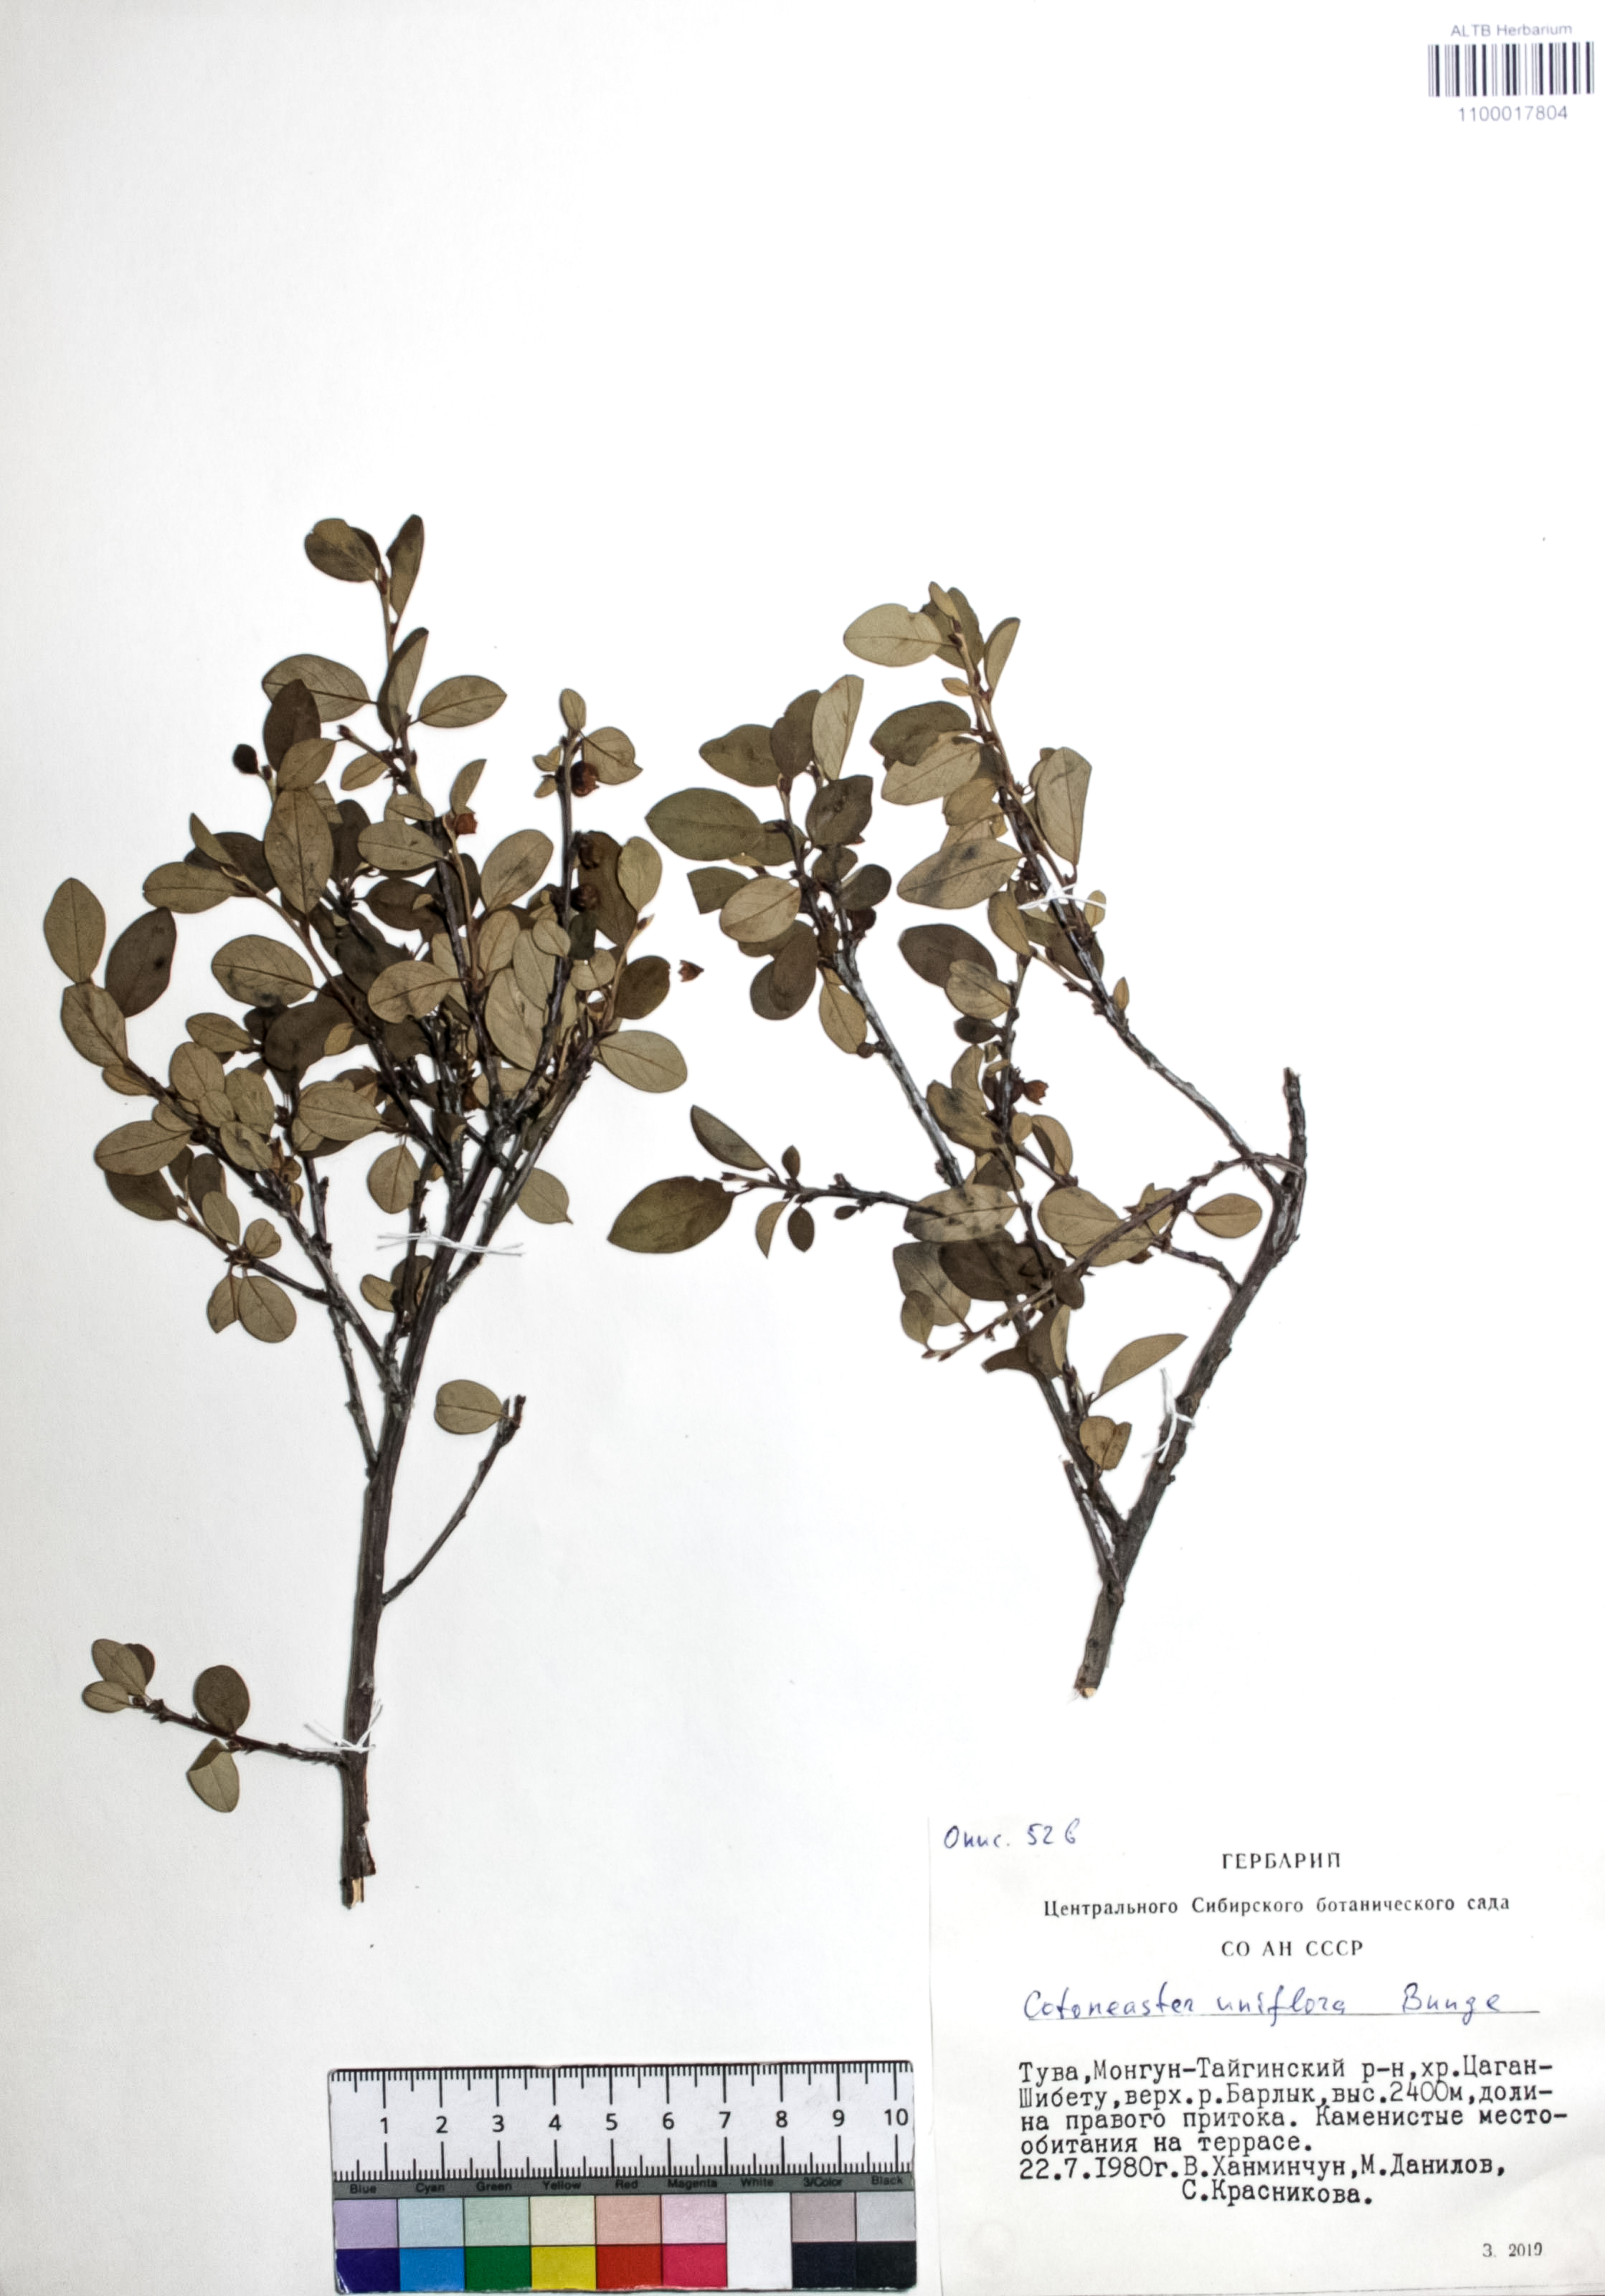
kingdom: Plantae
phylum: Tracheophyta
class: Magnoliopsida
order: Rosales
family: Rosaceae
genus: Cotoneaster
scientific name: Cotoneaster uniflorus
